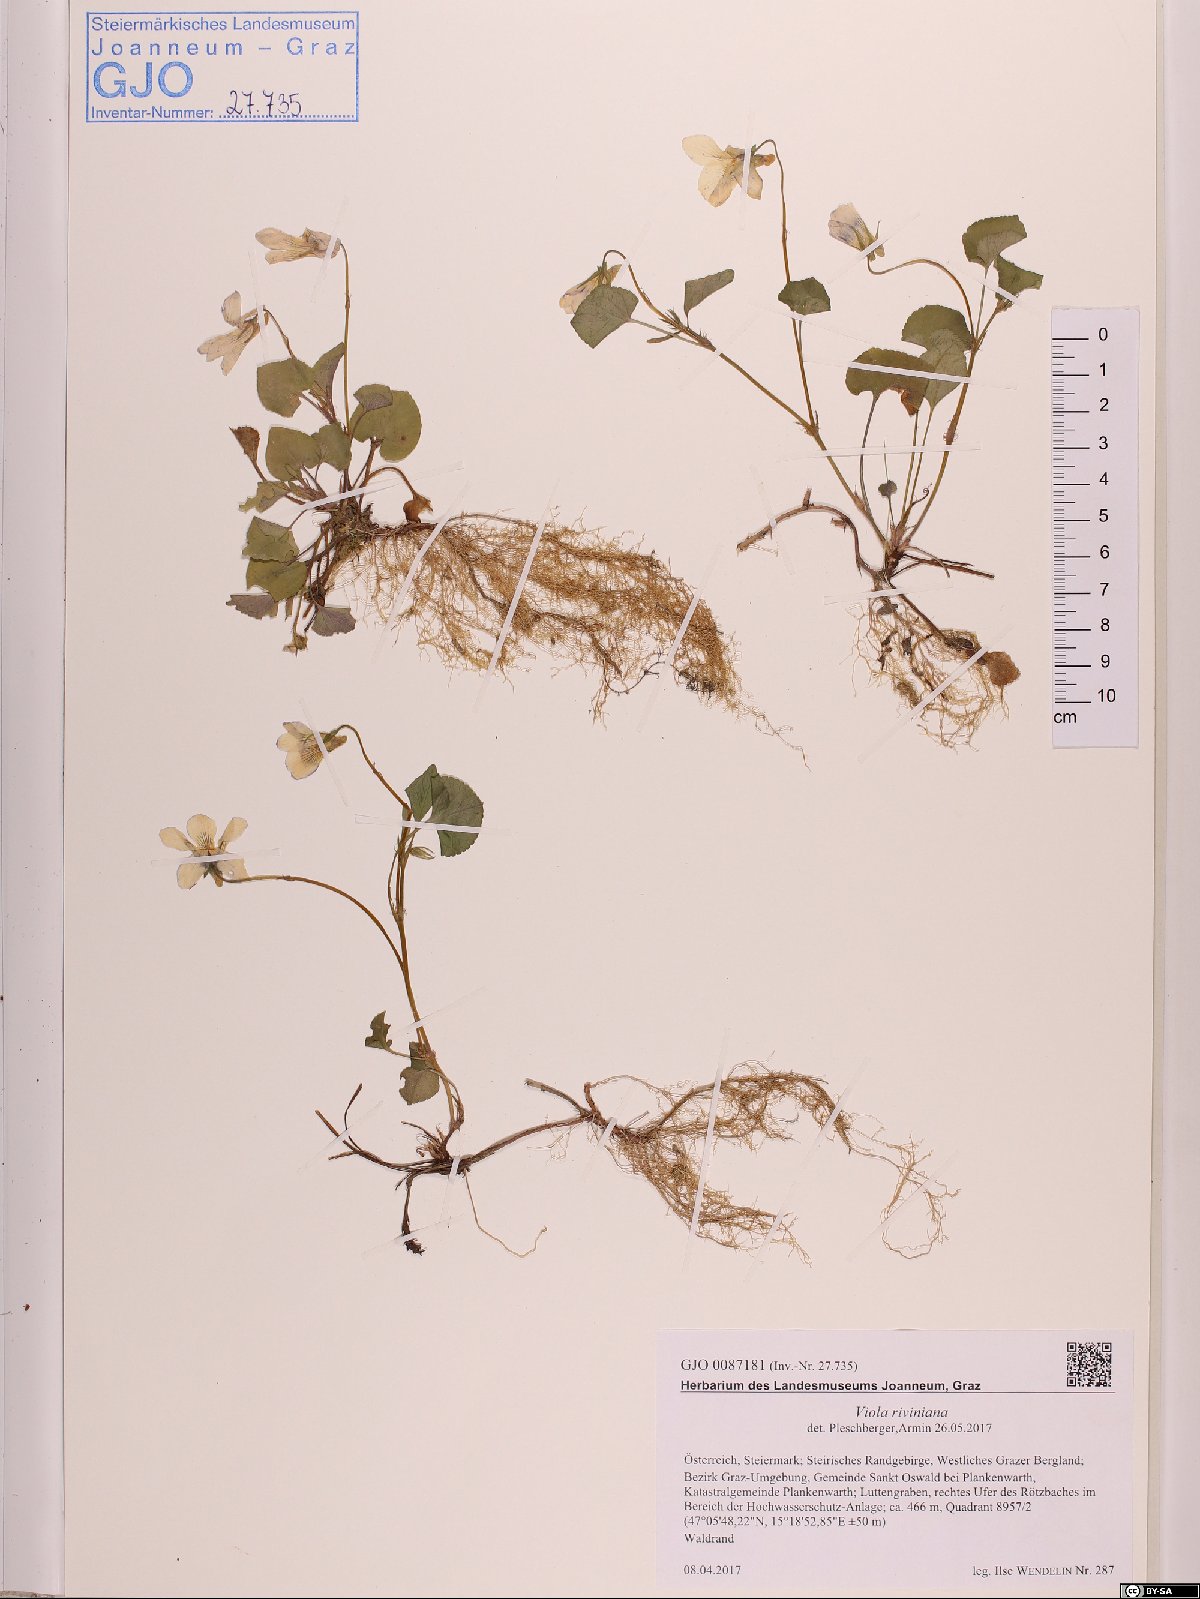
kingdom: Plantae
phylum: Tracheophyta
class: Magnoliopsida
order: Malpighiales
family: Violaceae
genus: Viola
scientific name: Viola riviniana
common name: Common dog-violet
